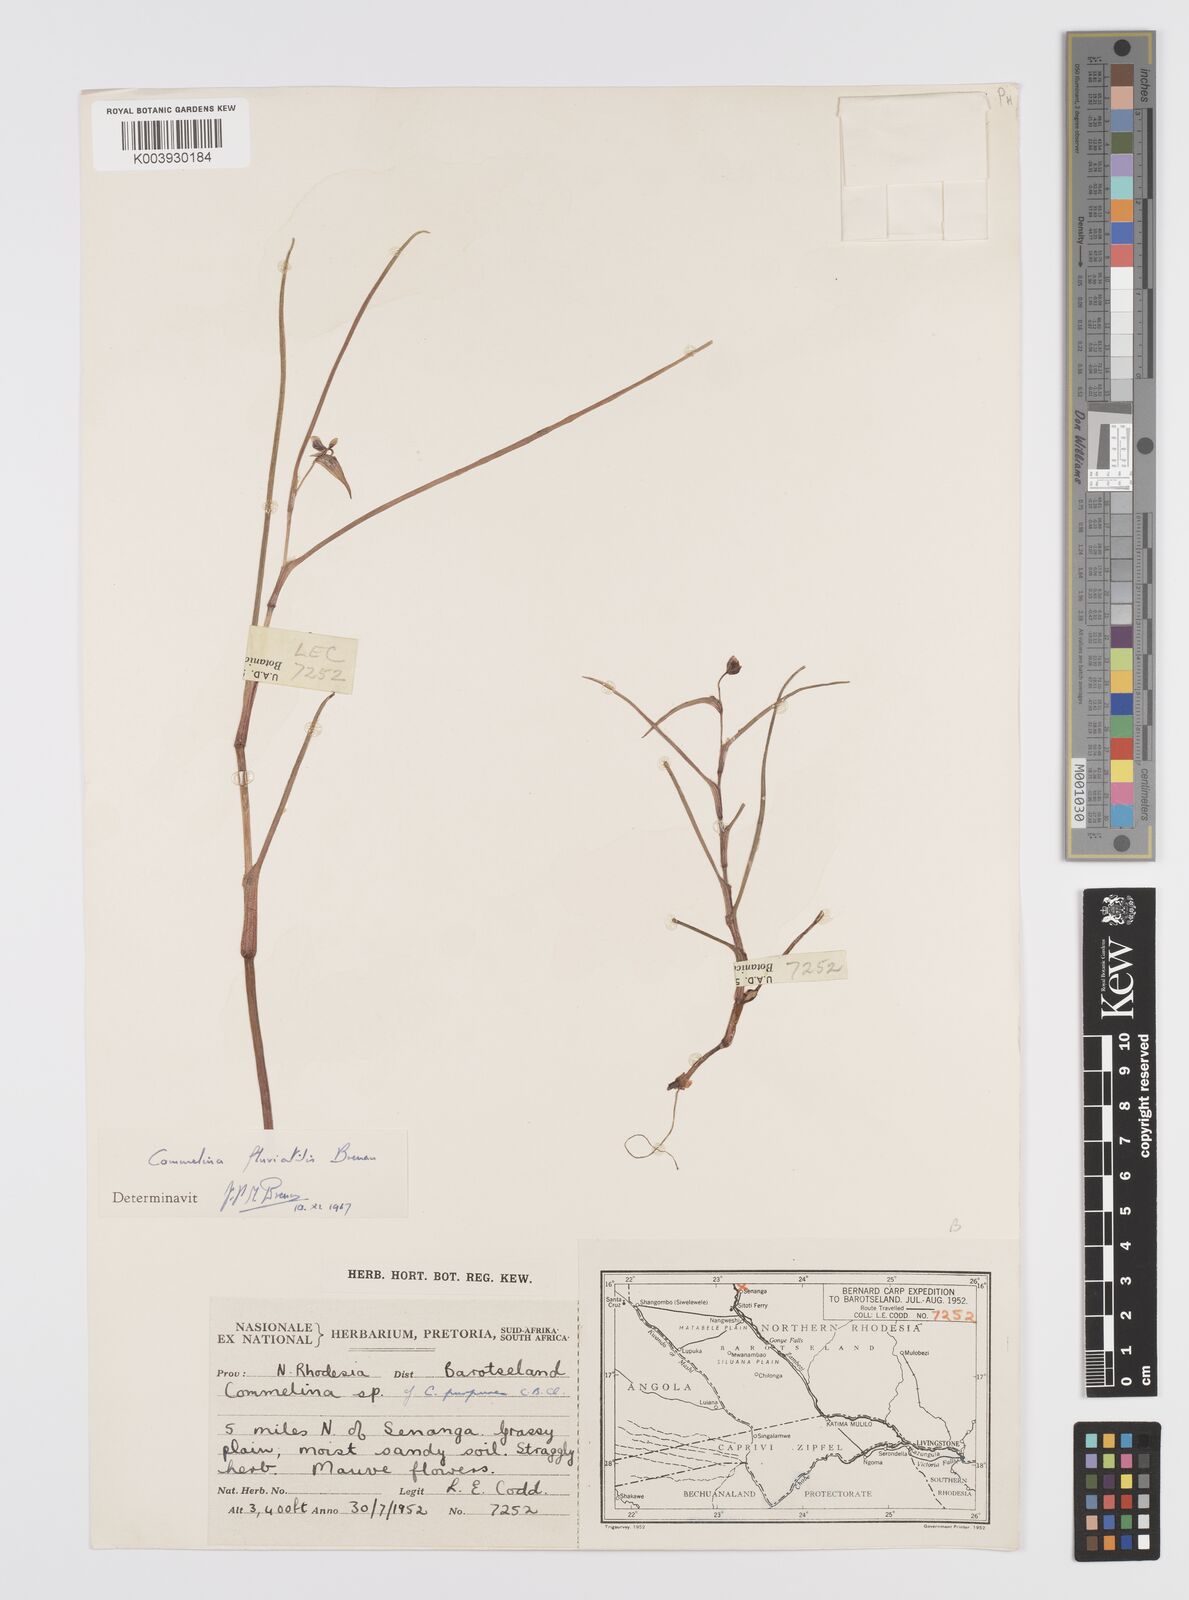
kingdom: Plantae
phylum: Tracheophyta
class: Liliopsida
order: Commelinales
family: Commelinaceae
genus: Commelina
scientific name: Commelina fluviatilis
